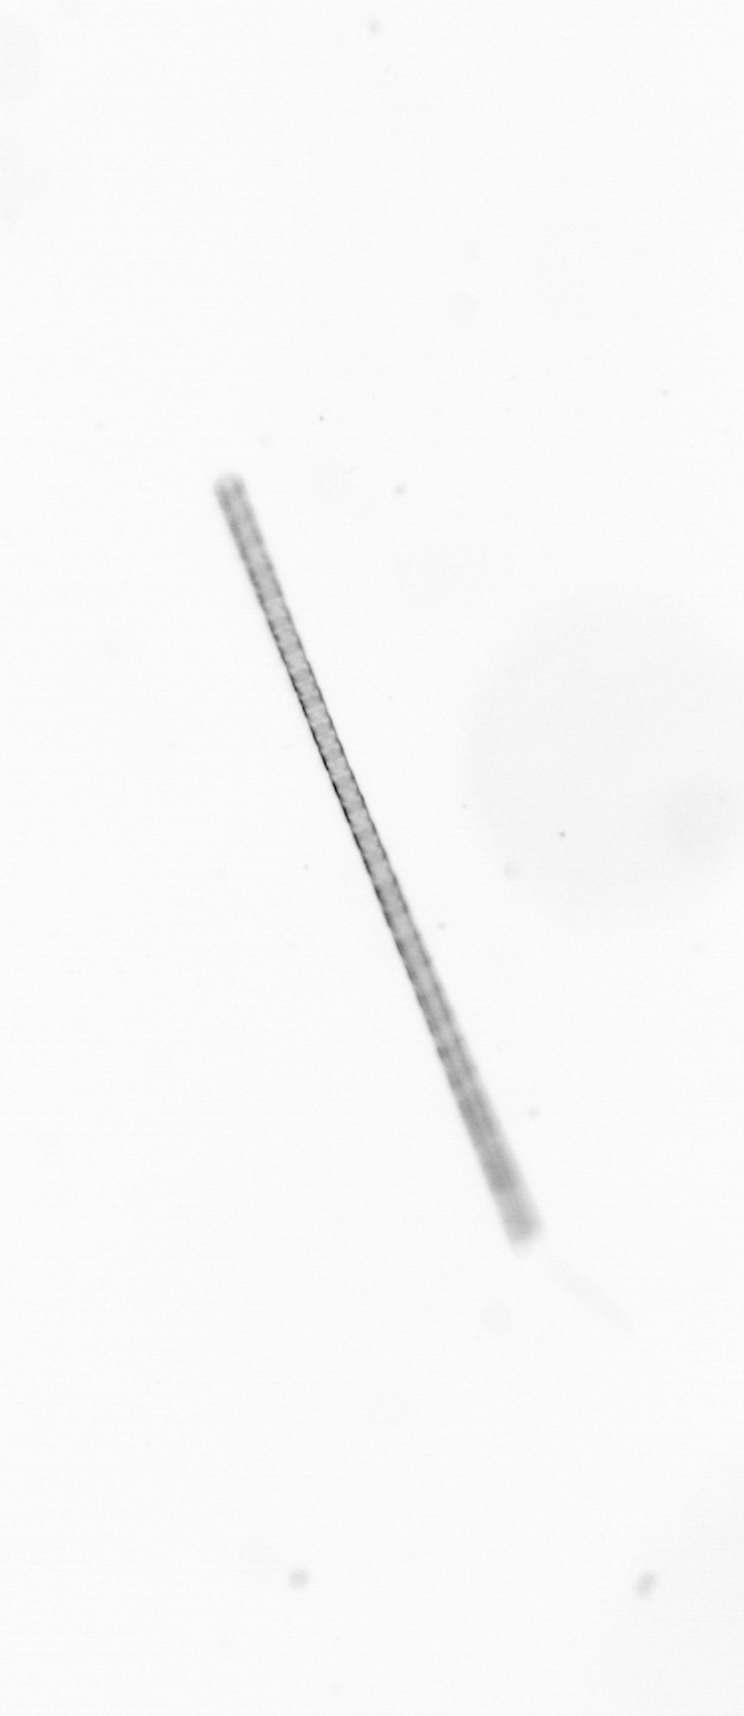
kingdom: Chromista
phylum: Ochrophyta
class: Bacillariophyceae
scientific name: Bacillariophyceae
